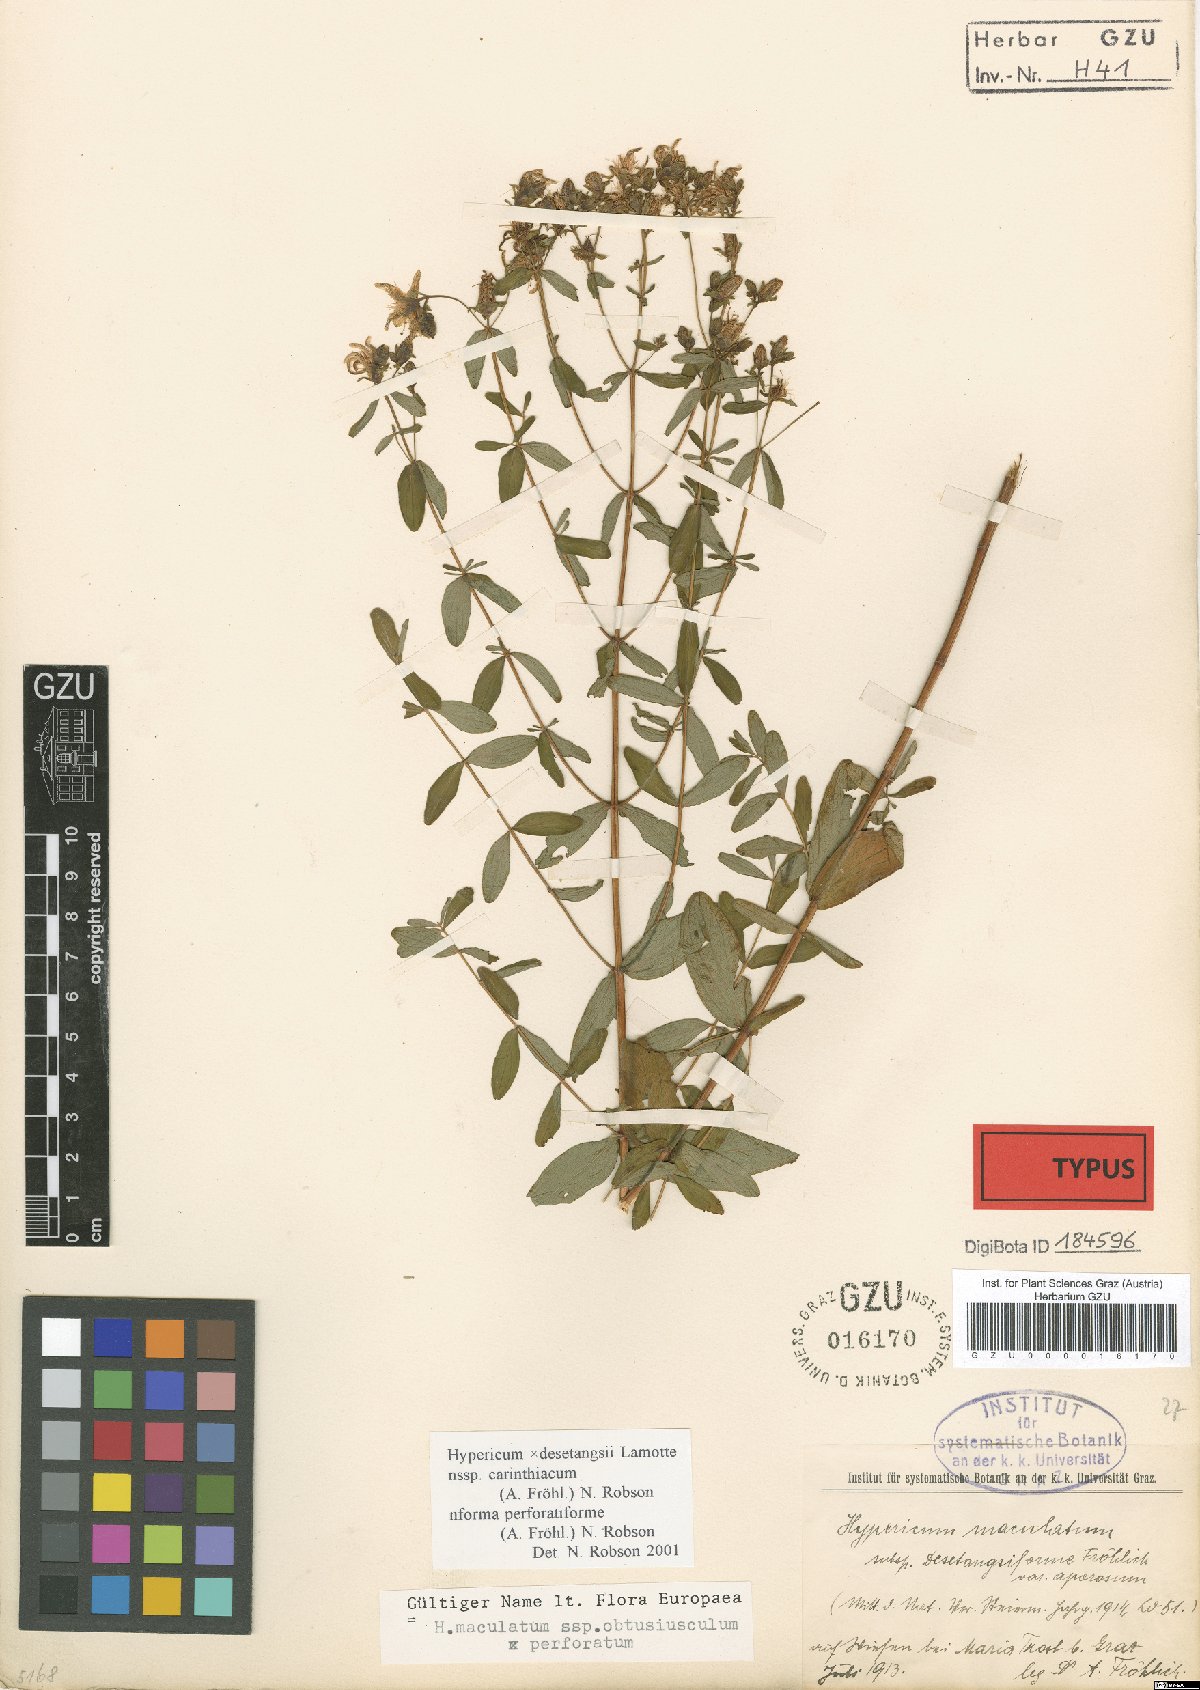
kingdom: Plantae
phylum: Tracheophyta
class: Magnoliopsida
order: Malpighiales
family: Hypericaceae
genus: Hypericum
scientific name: Hypericum maculatum
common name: Imperforate st. john's-wort
